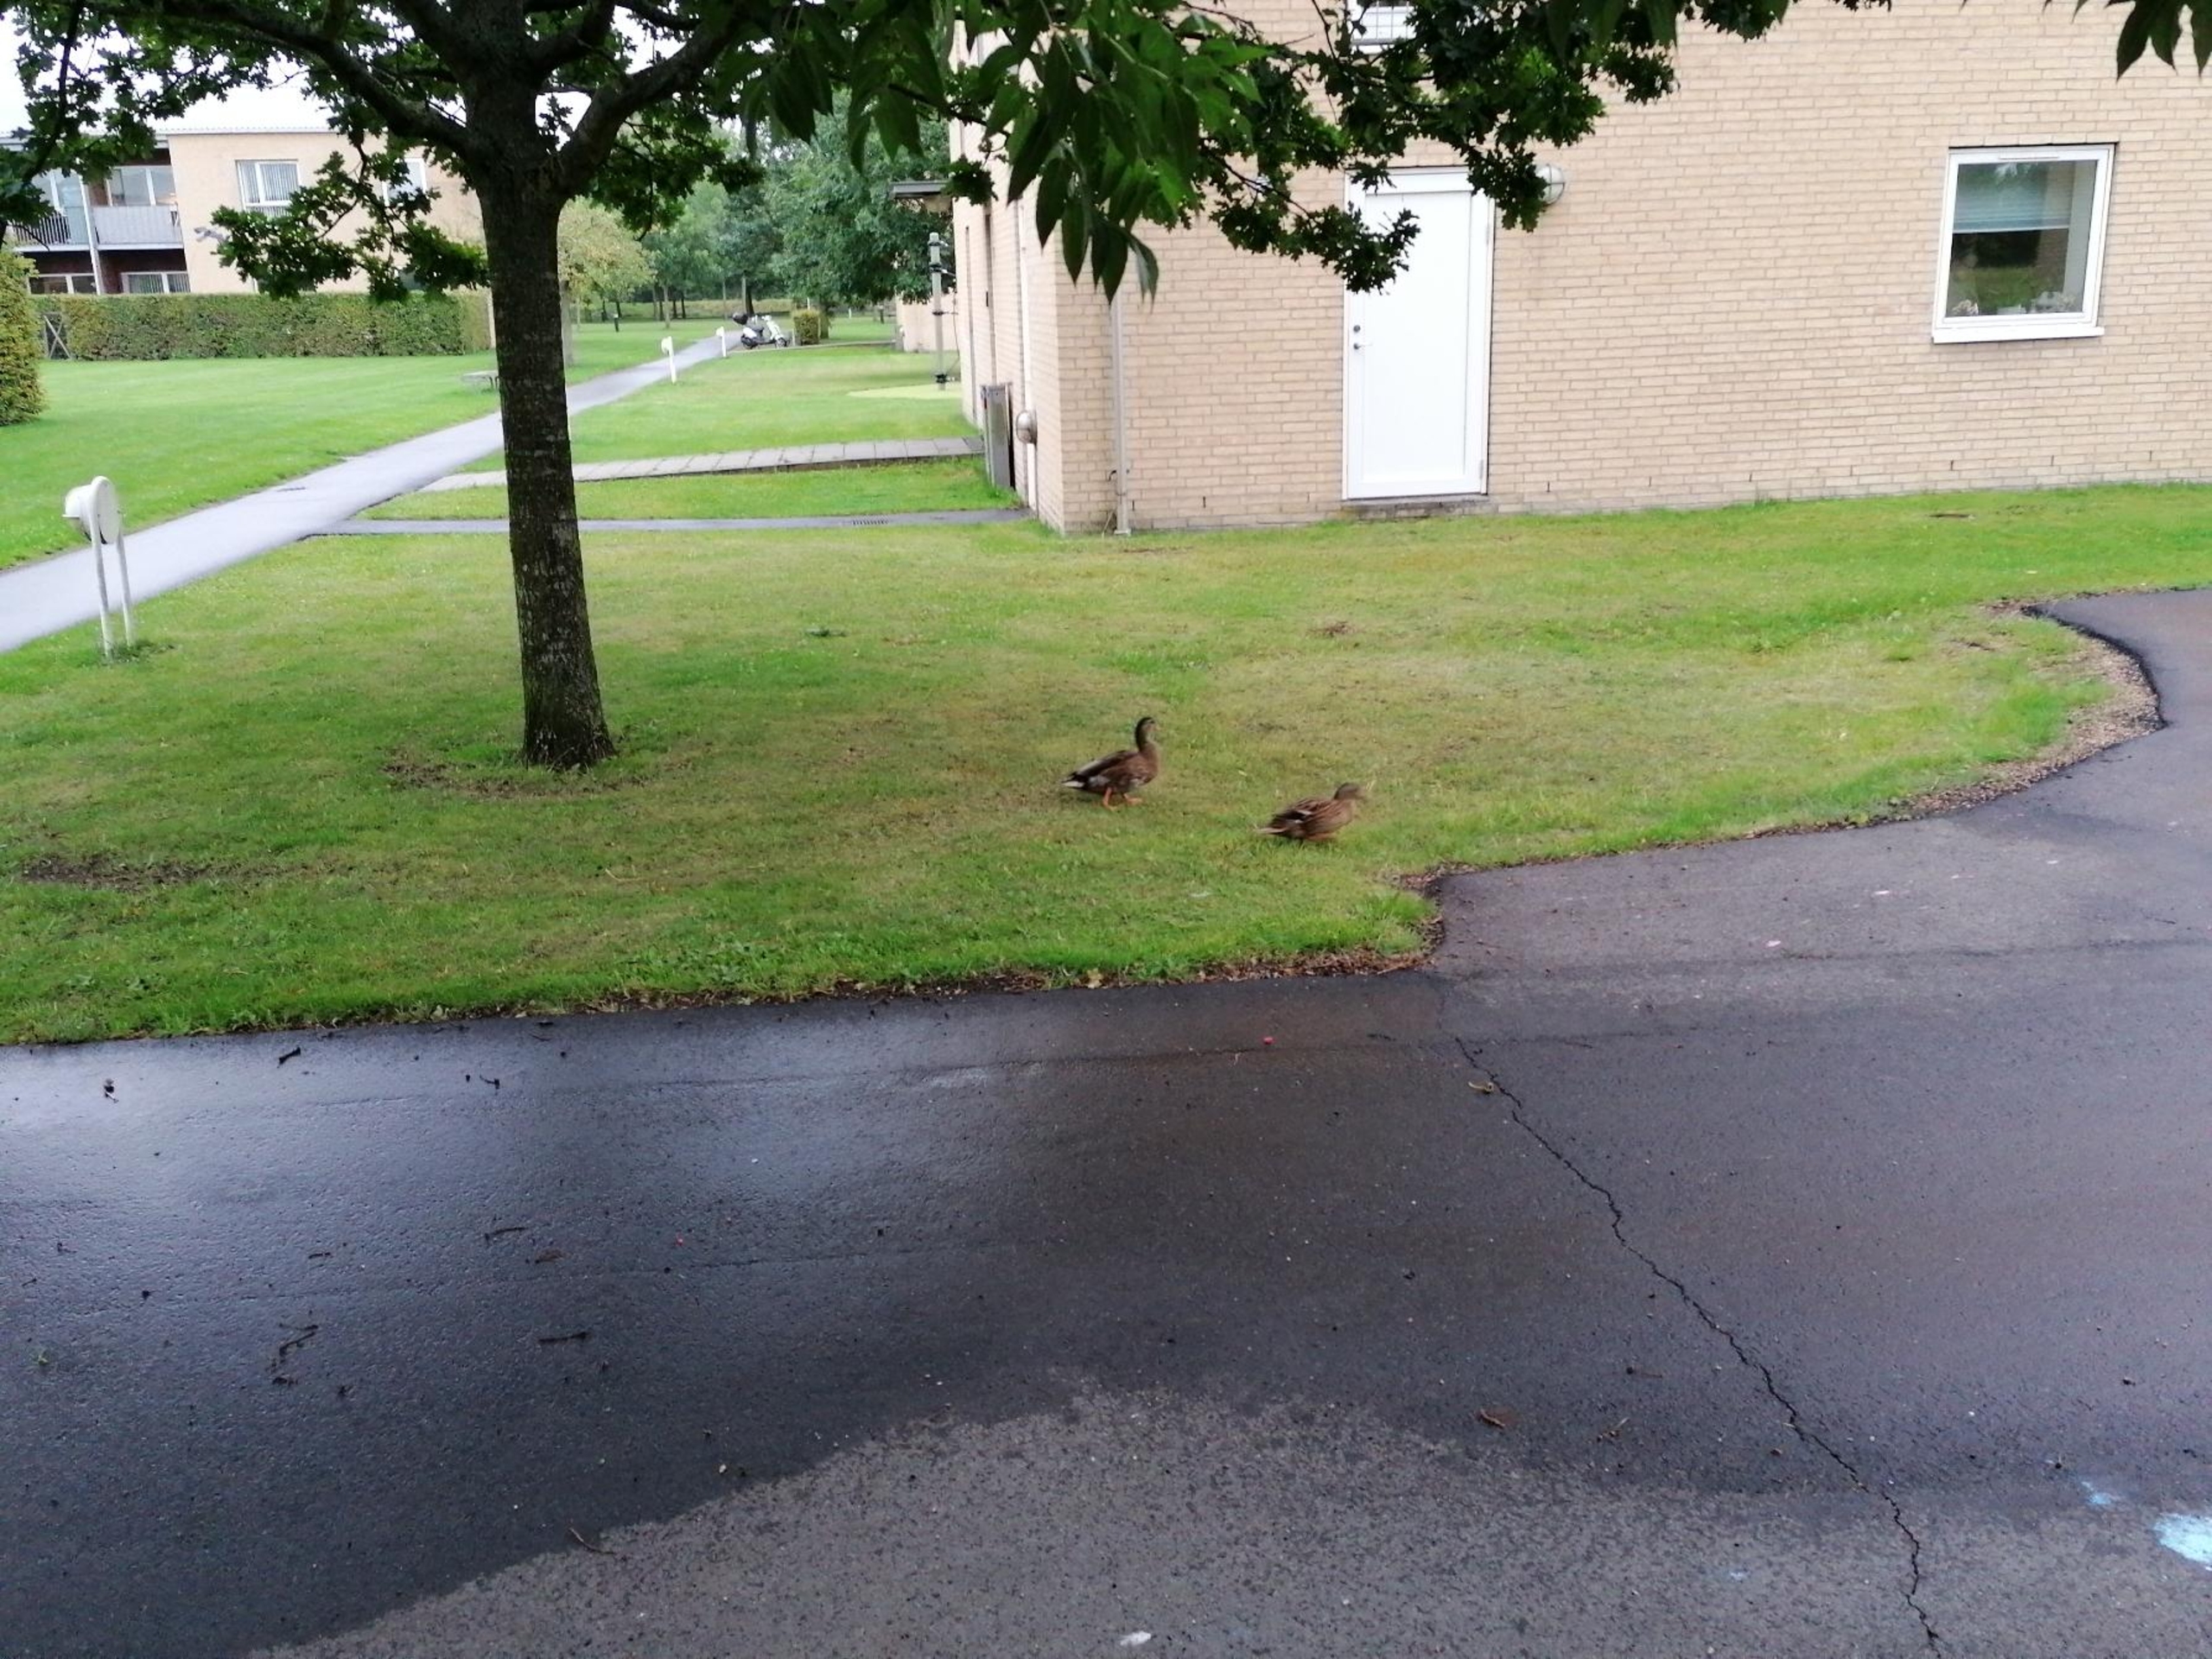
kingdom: Animalia
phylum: Chordata
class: Aves
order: Anseriformes
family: Anatidae
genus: Anas
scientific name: Anas platyrhynchos
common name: Gråand
